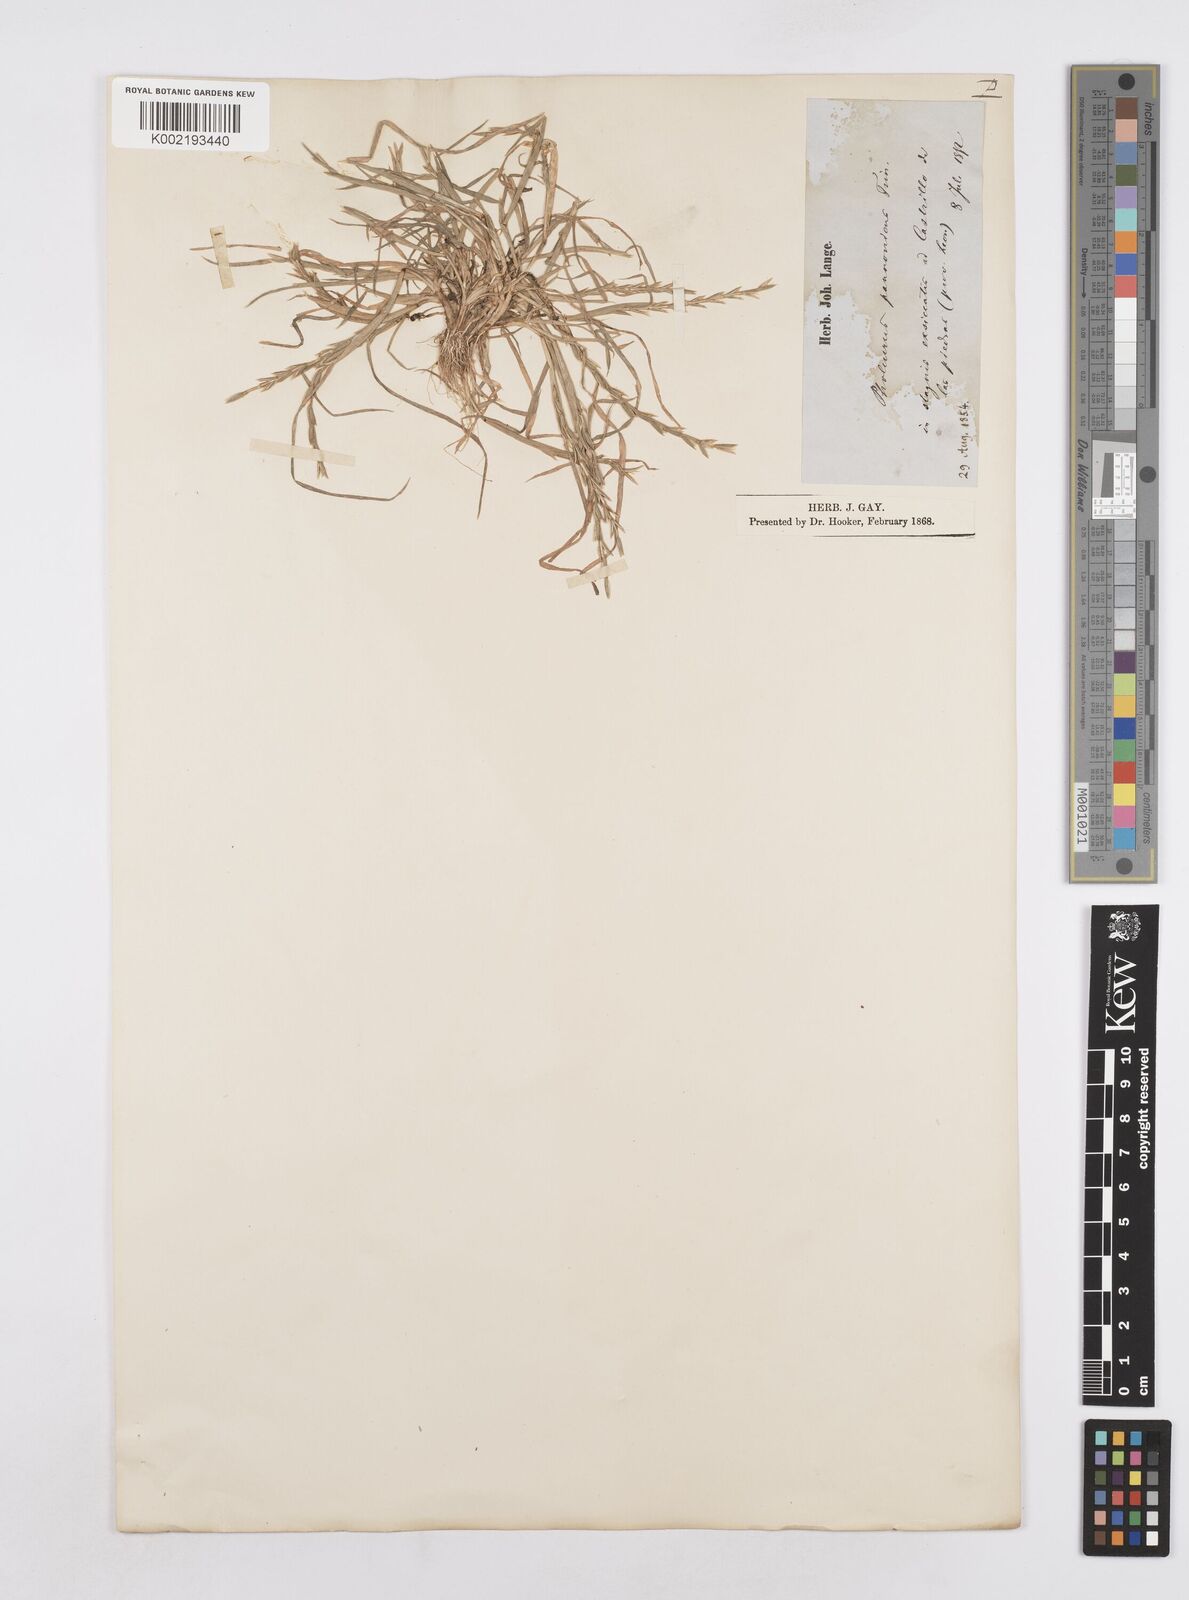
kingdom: Plantae
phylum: Tracheophyta
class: Liliopsida
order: Poales
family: Poaceae
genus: Pholiurus
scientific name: Pholiurus pannonicus
